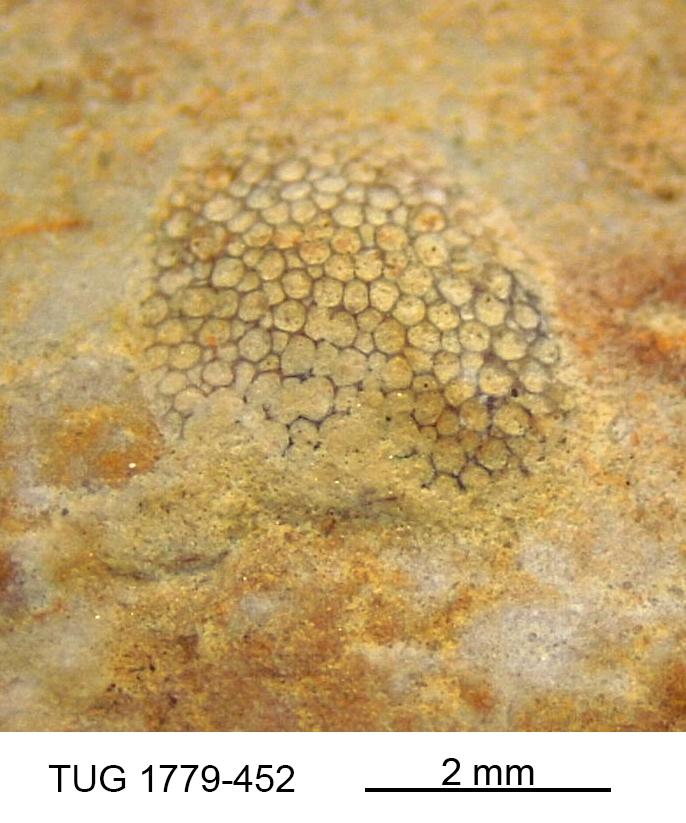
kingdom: Animalia
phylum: Bryozoa
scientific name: Bryozoa
